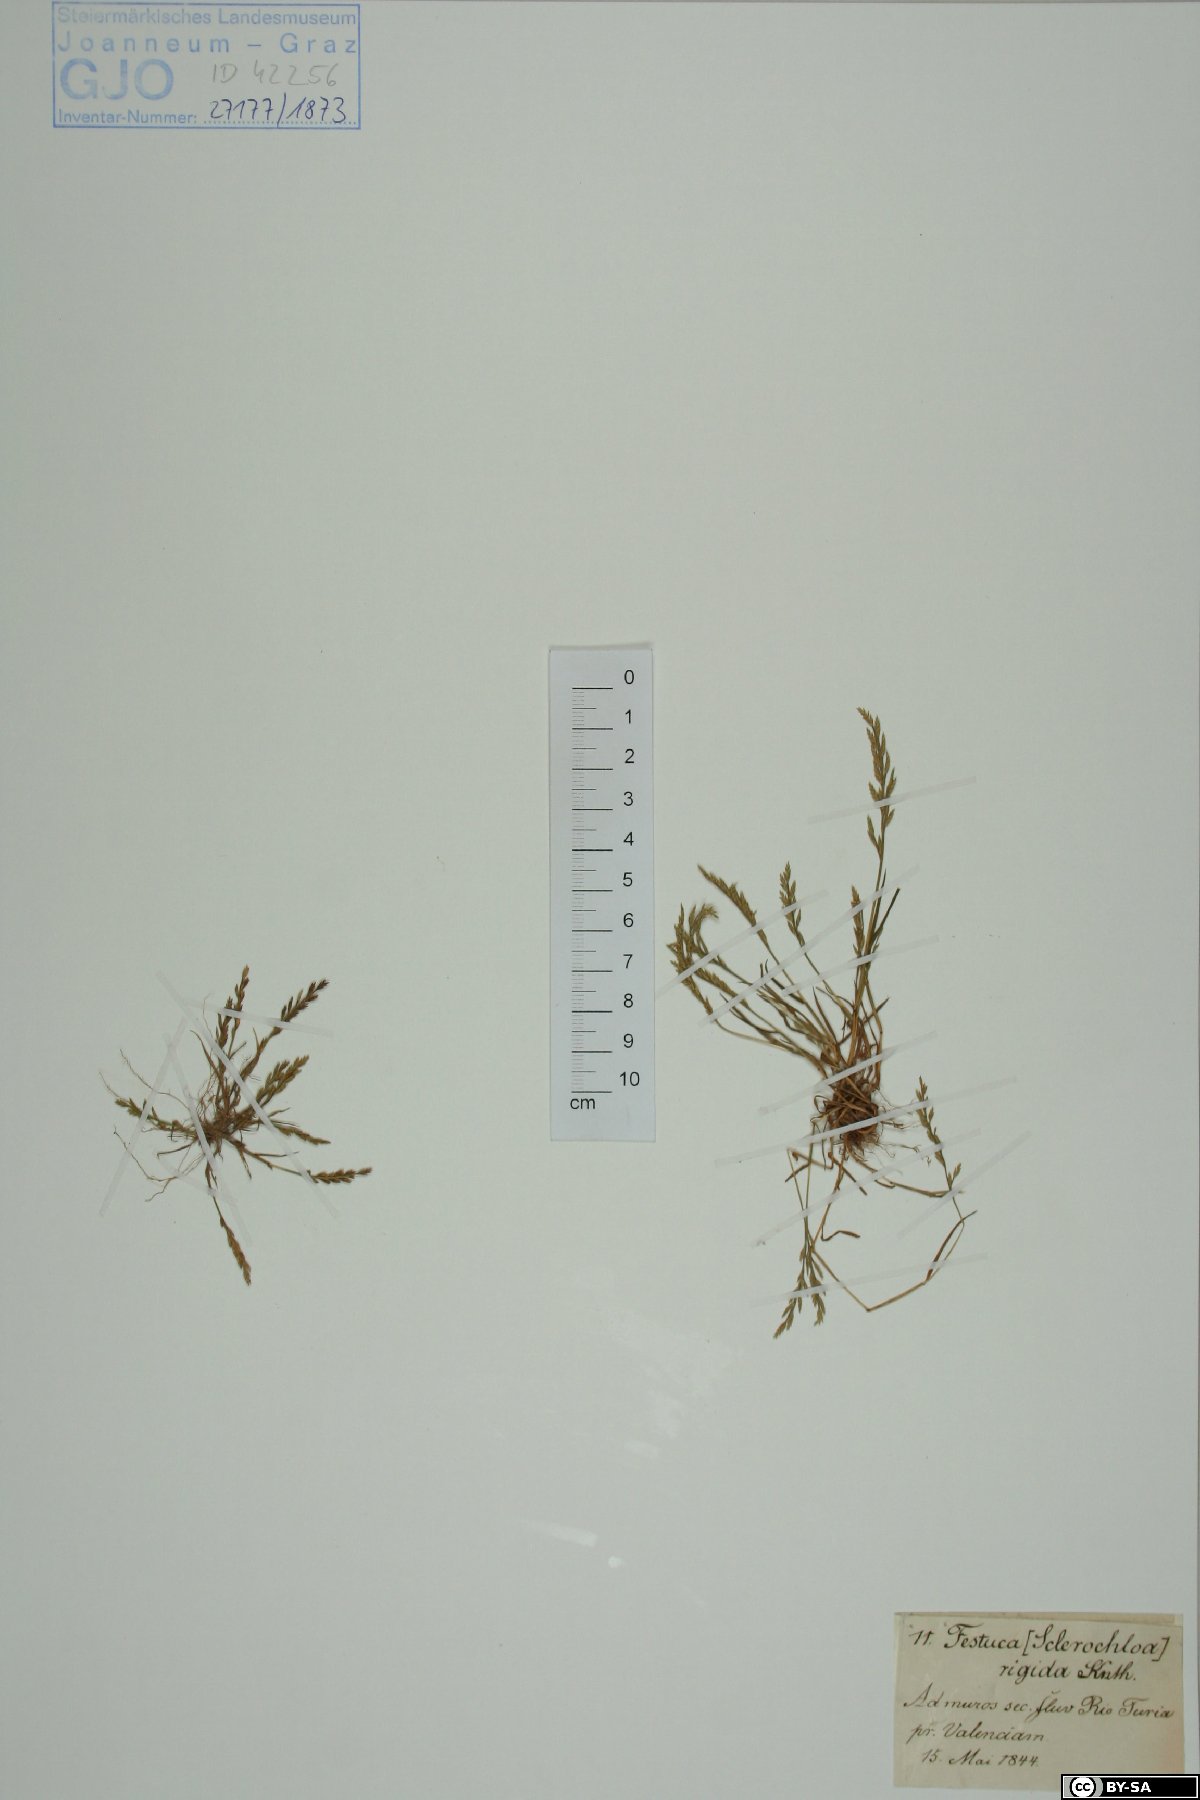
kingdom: Plantae
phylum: Tracheophyta
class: Liliopsida
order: Poales
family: Poaceae
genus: Catapodium
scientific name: Catapodium rigidum
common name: Fern-grass
